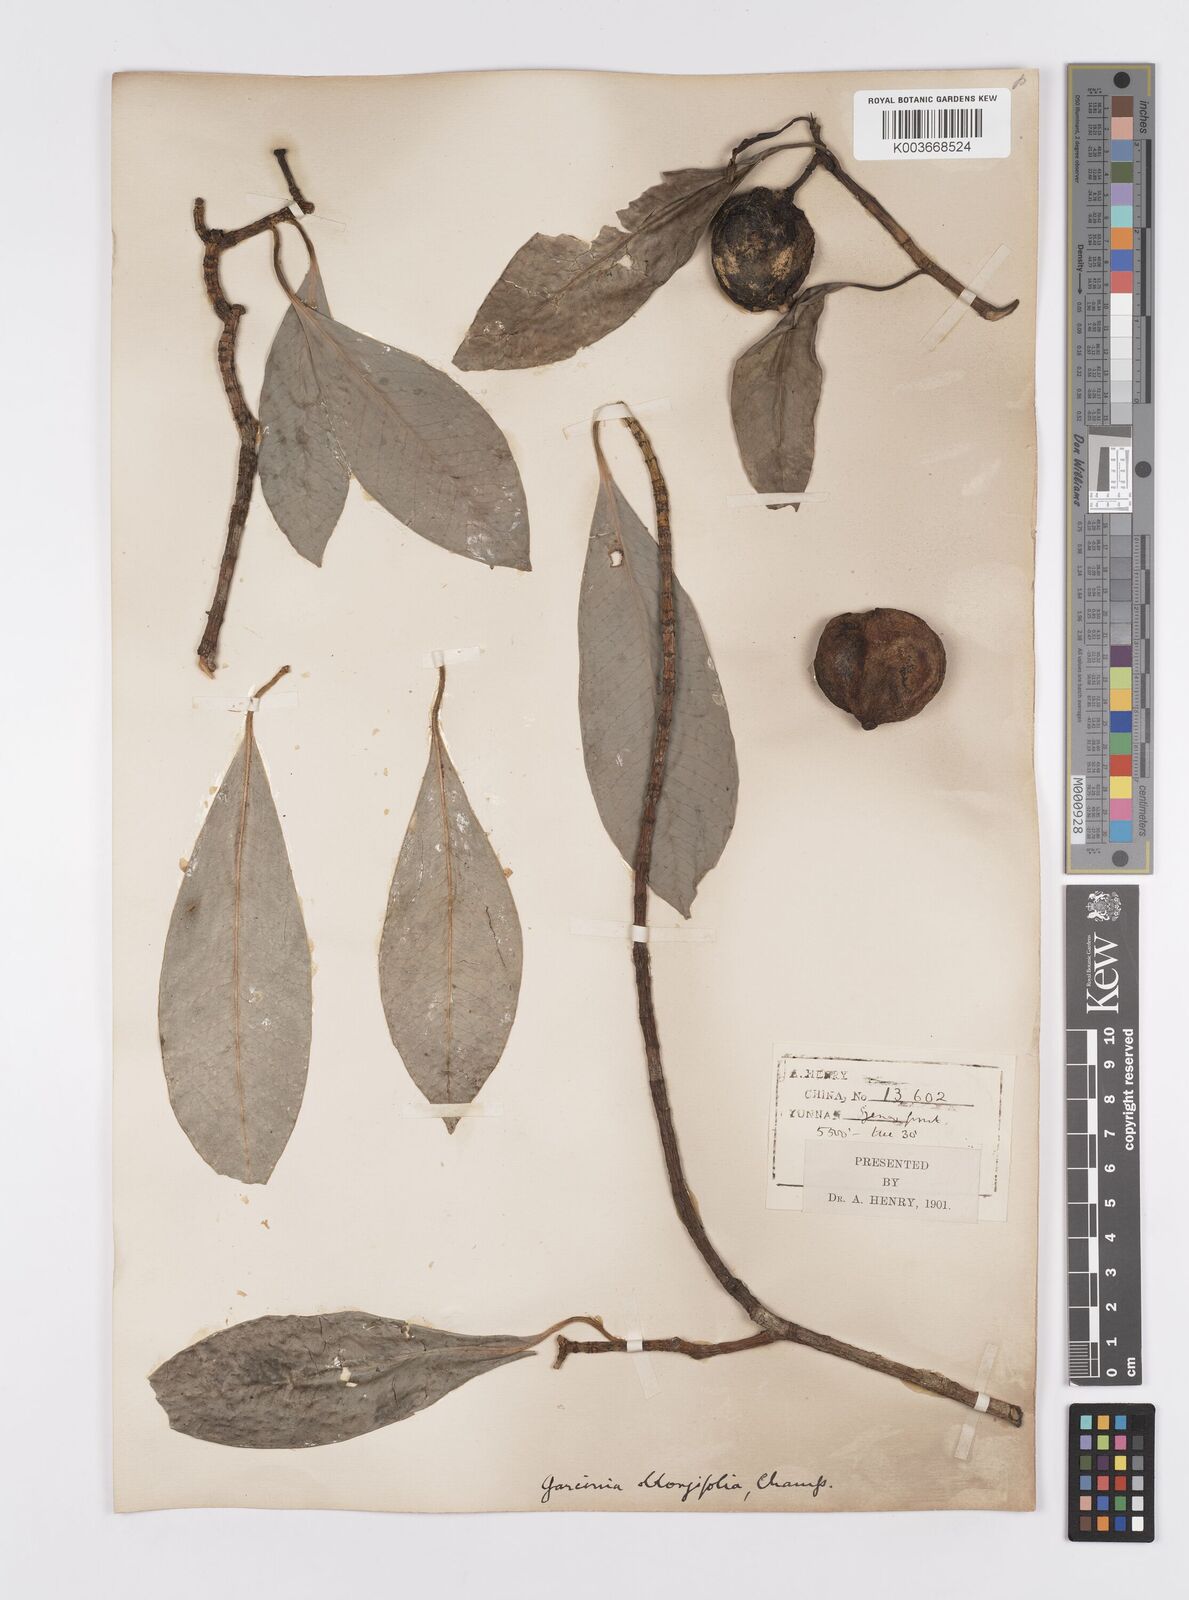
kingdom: Plantae
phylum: Tracheophyta
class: Magnoliopsida
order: Malpighiales
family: Clusiaceae
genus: Garcinia
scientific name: Garcinia multiflora
